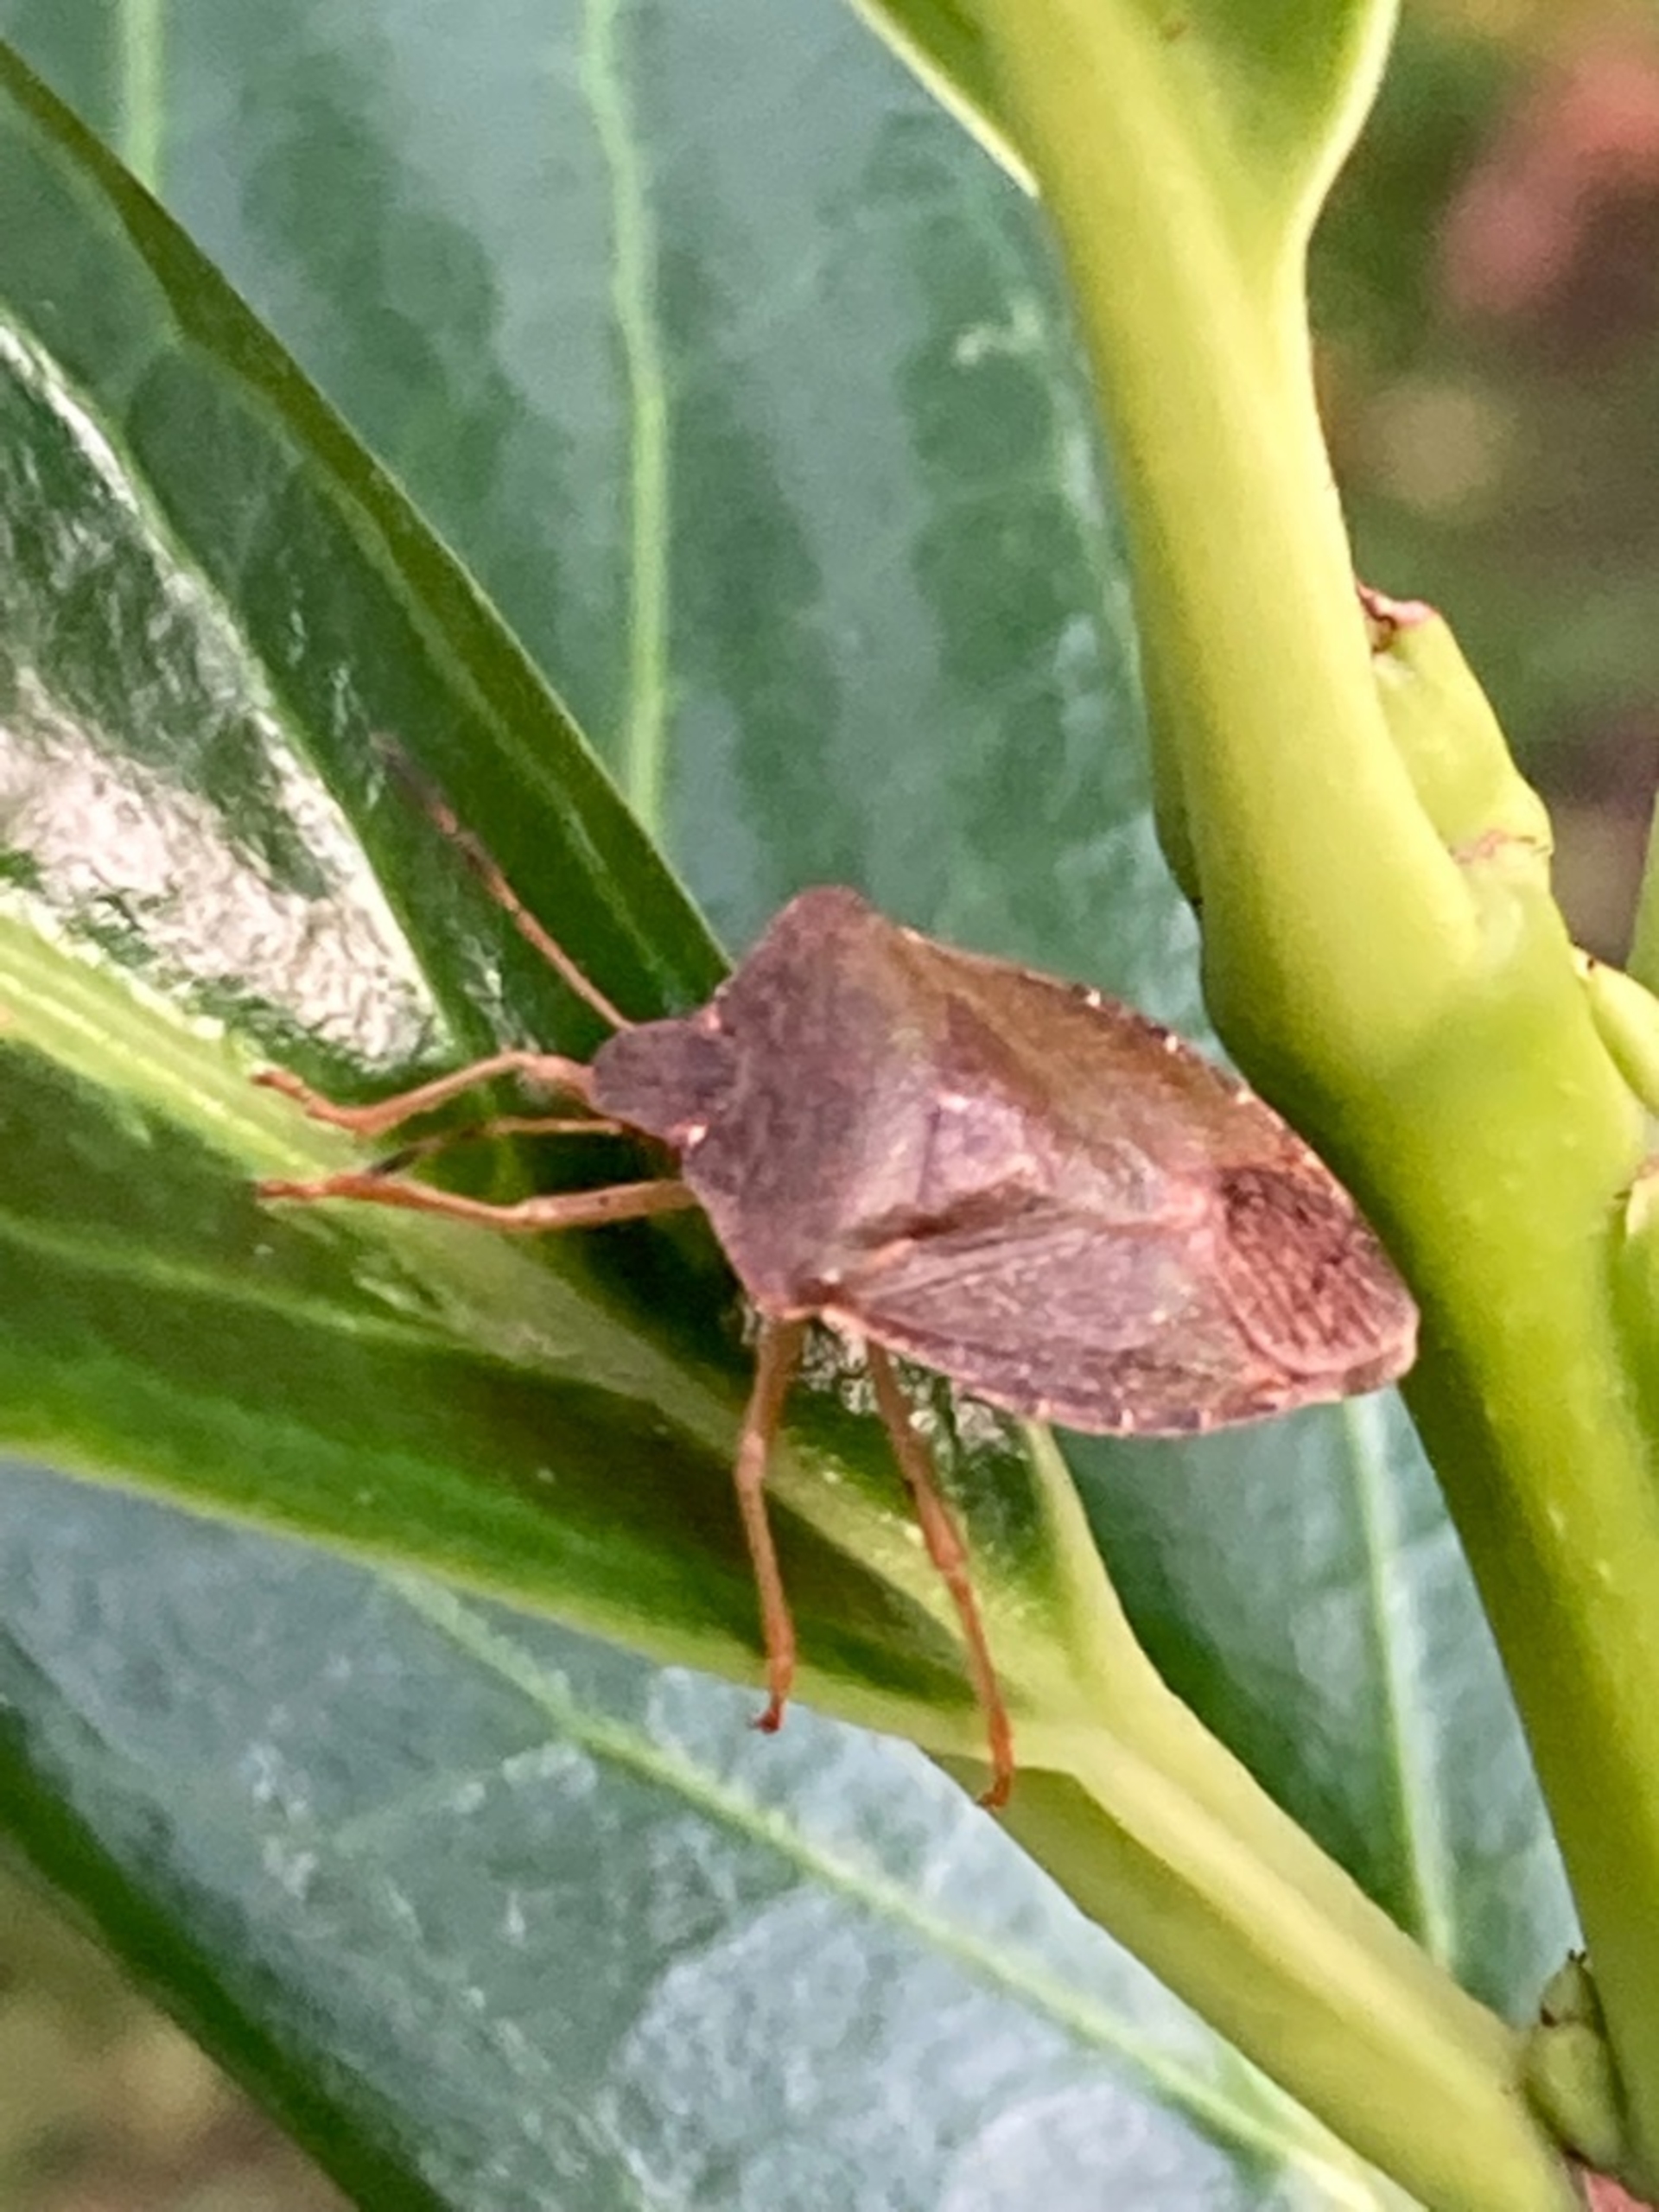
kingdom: Animalia
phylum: Arthropoda
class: Insecta
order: Hemiptera
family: Pentatomidae
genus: Palomena
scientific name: Palomena prasina
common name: Grøn bredtæge
